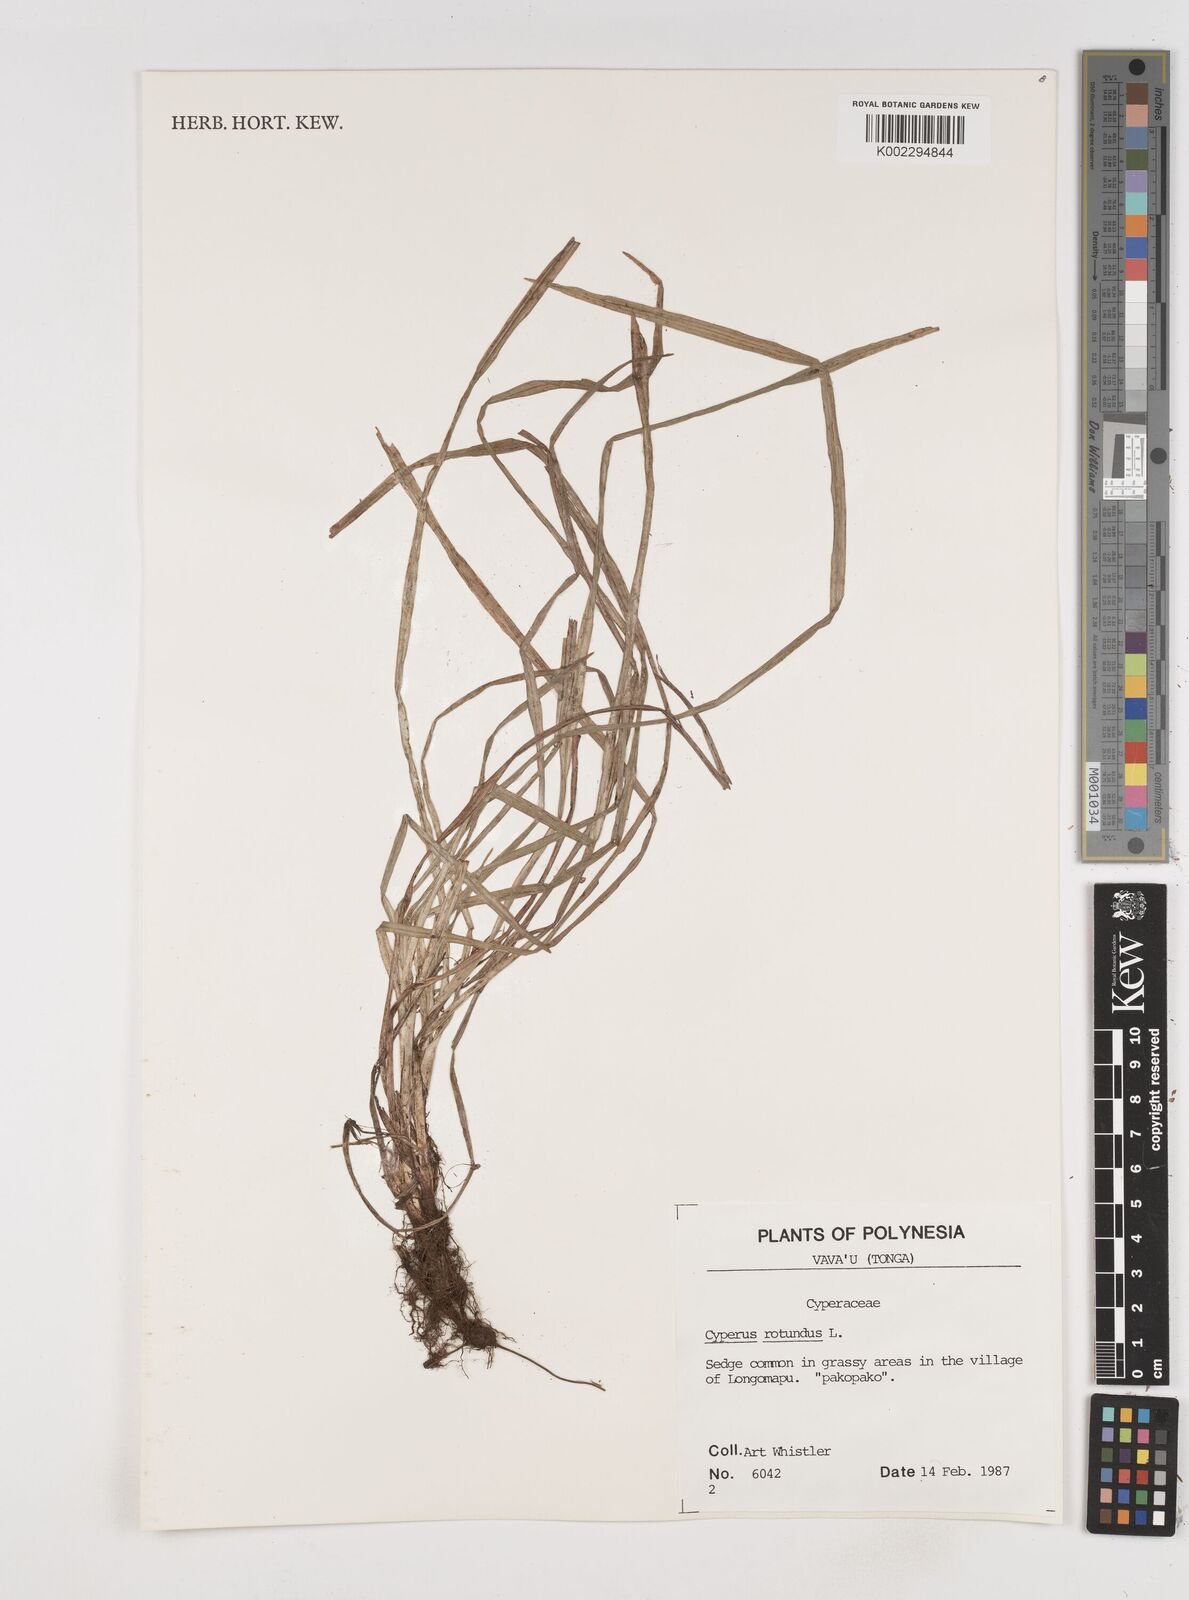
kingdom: Plantae
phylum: Tracheophyta
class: Liliopsida
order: Poales
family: Cyperaceae
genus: Cyperus
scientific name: Cyperus rotundus
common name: Nutgrass
